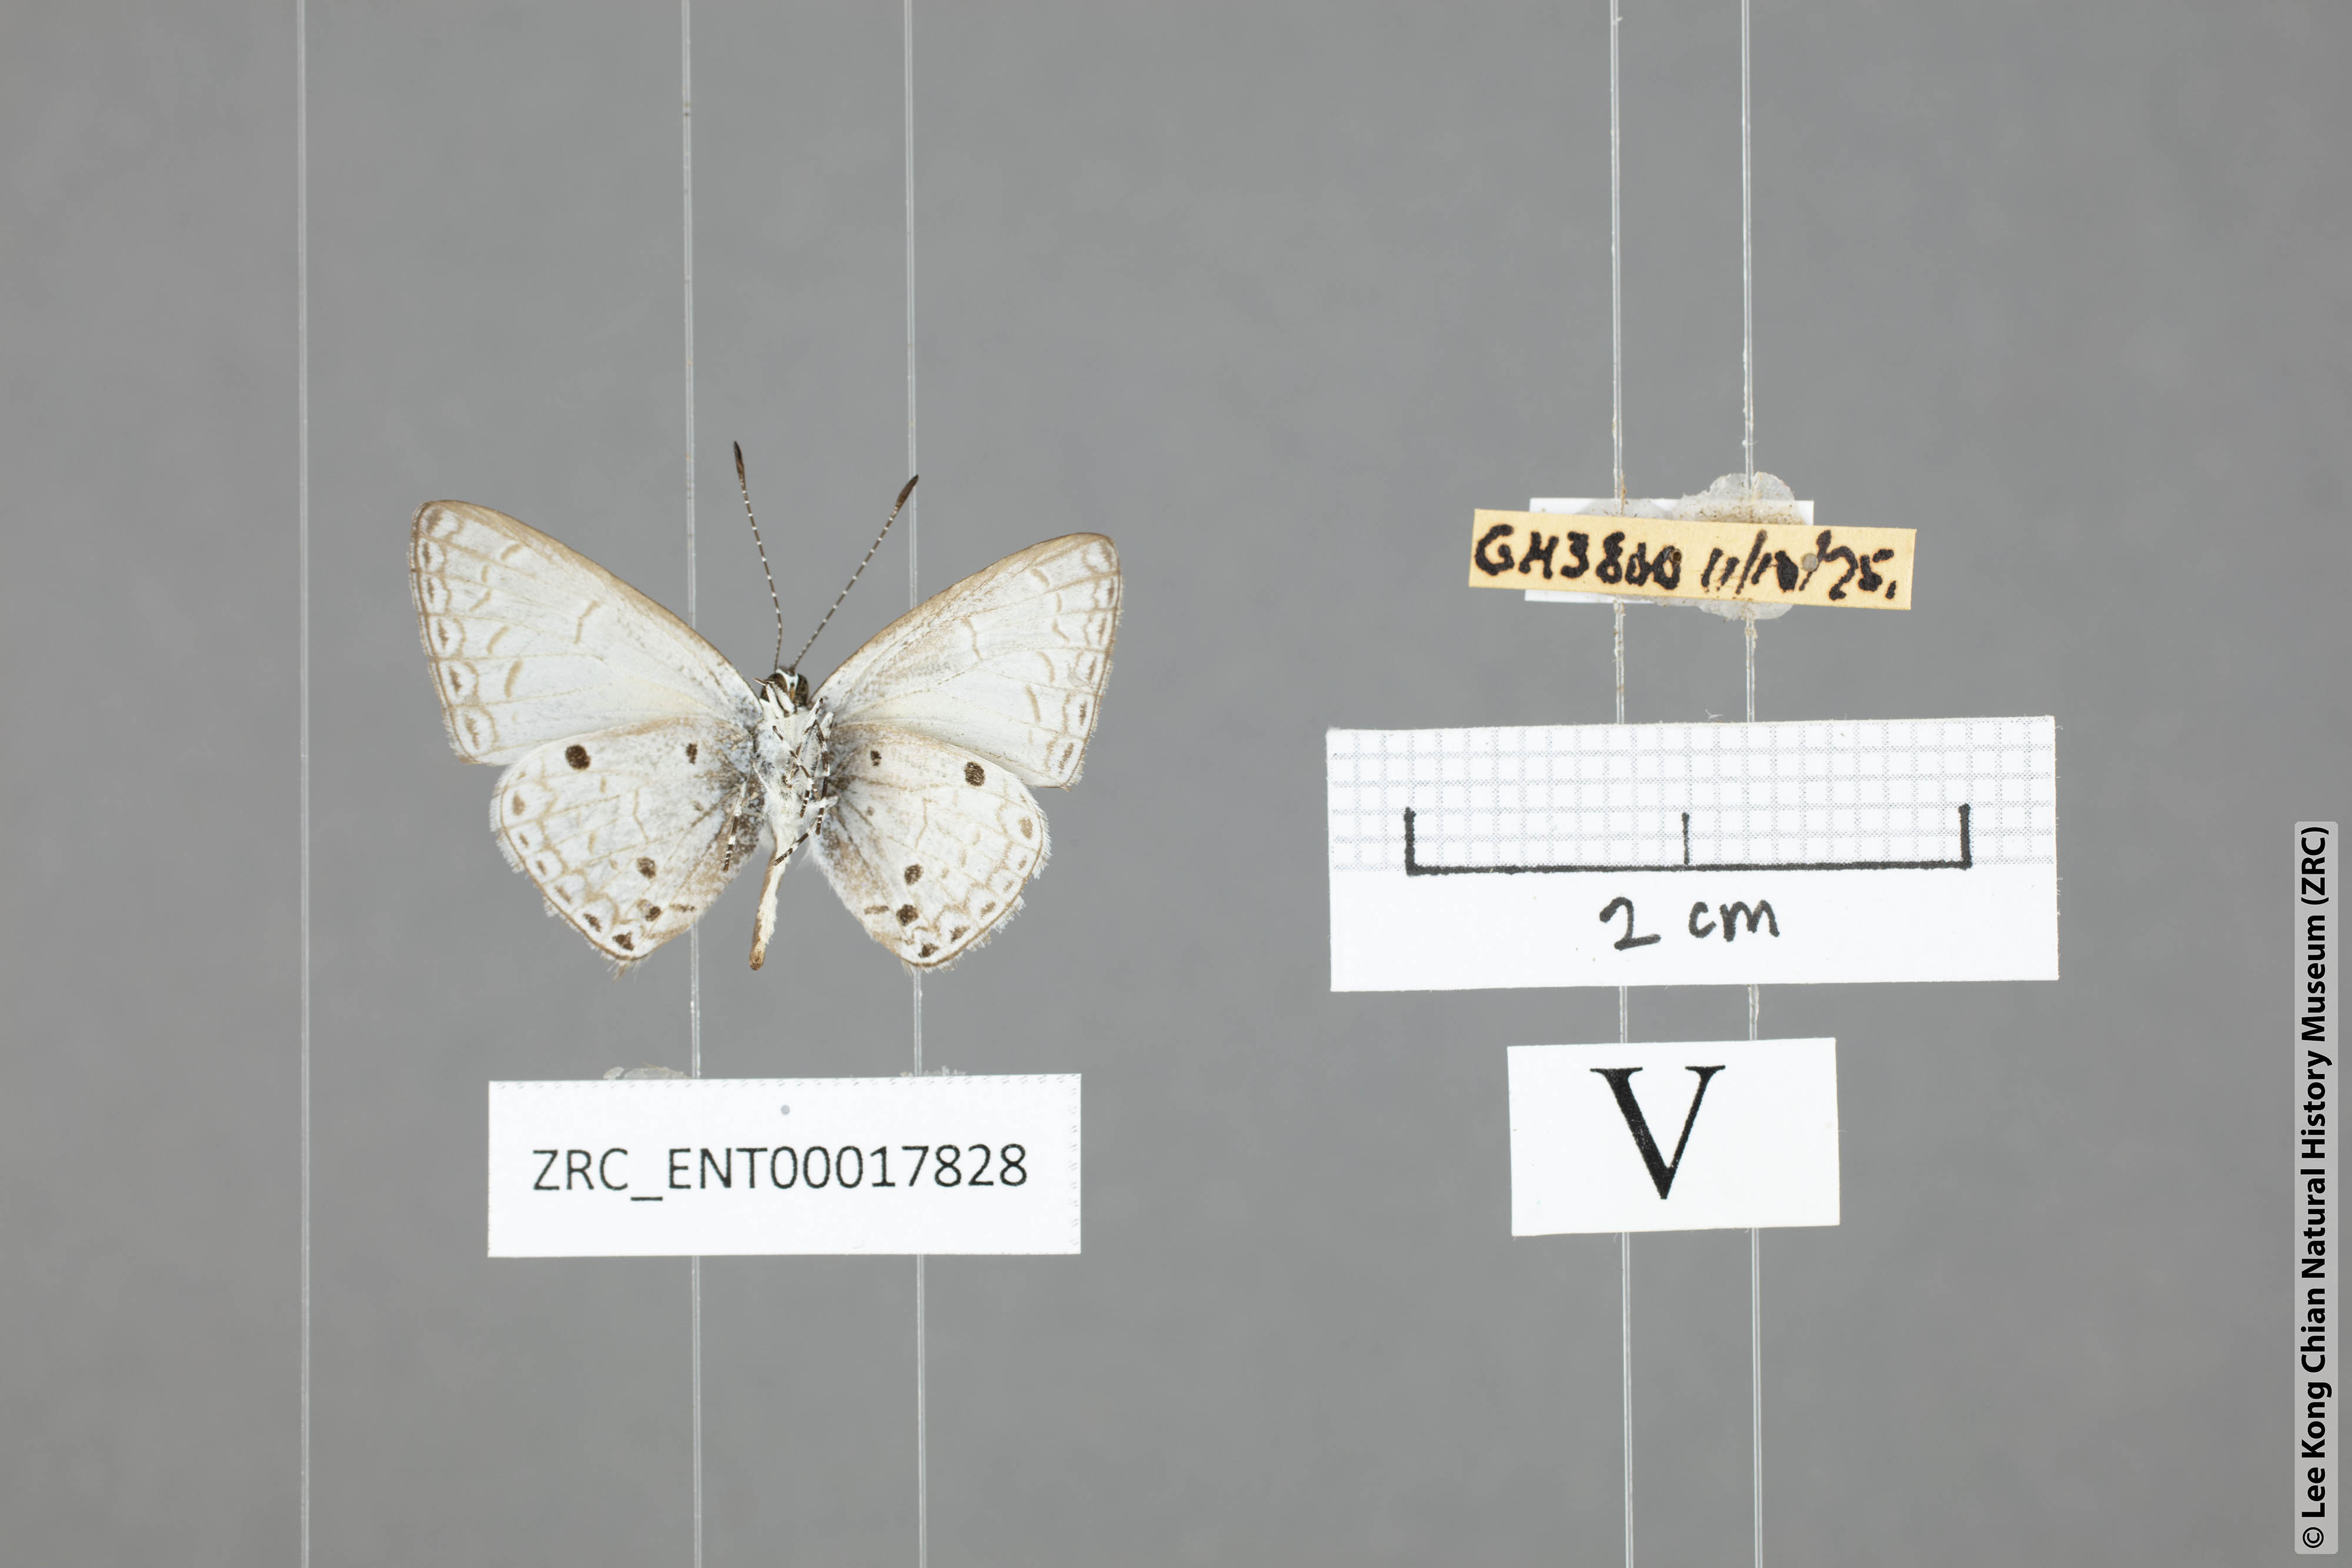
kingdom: Animalia
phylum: Arthropoda
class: Insecta
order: Lepidoptera
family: Lycaenidae
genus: Cebrella
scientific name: Cebrella
